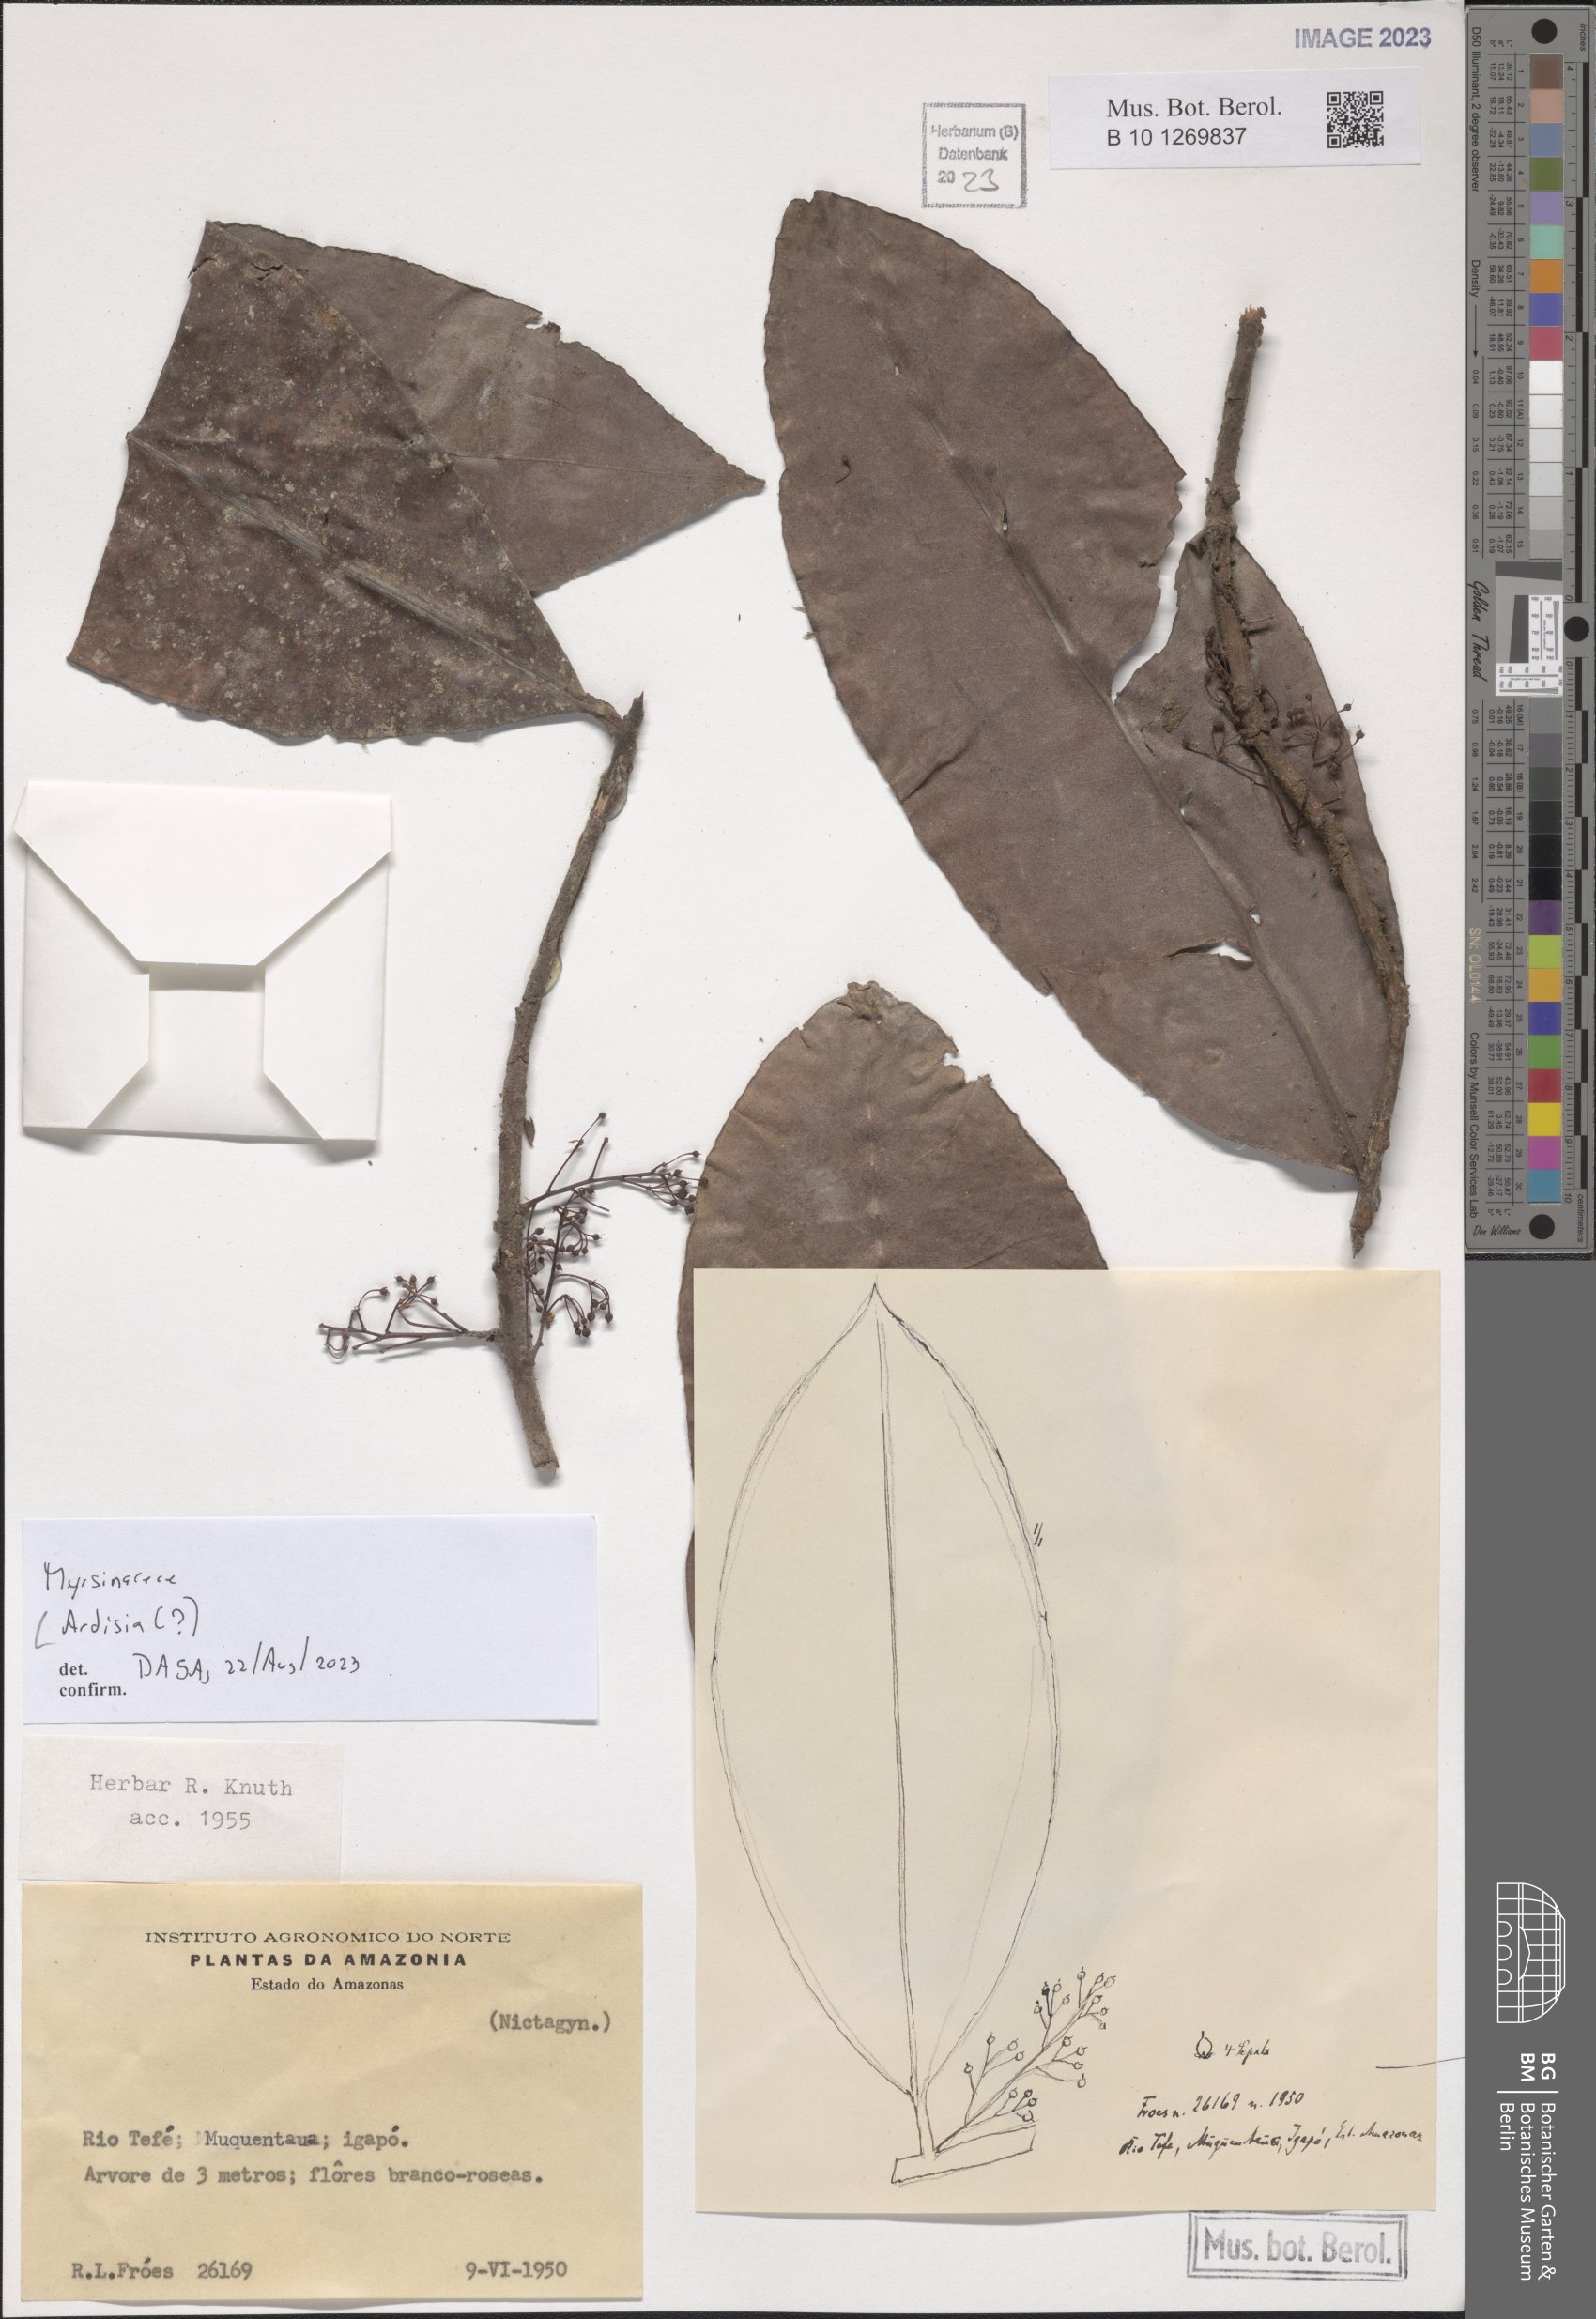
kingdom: Plantae
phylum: Tracheophyta
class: Magnoliopsida
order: Ericales
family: Primulaceae
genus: Ardisia
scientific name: Ardisia
